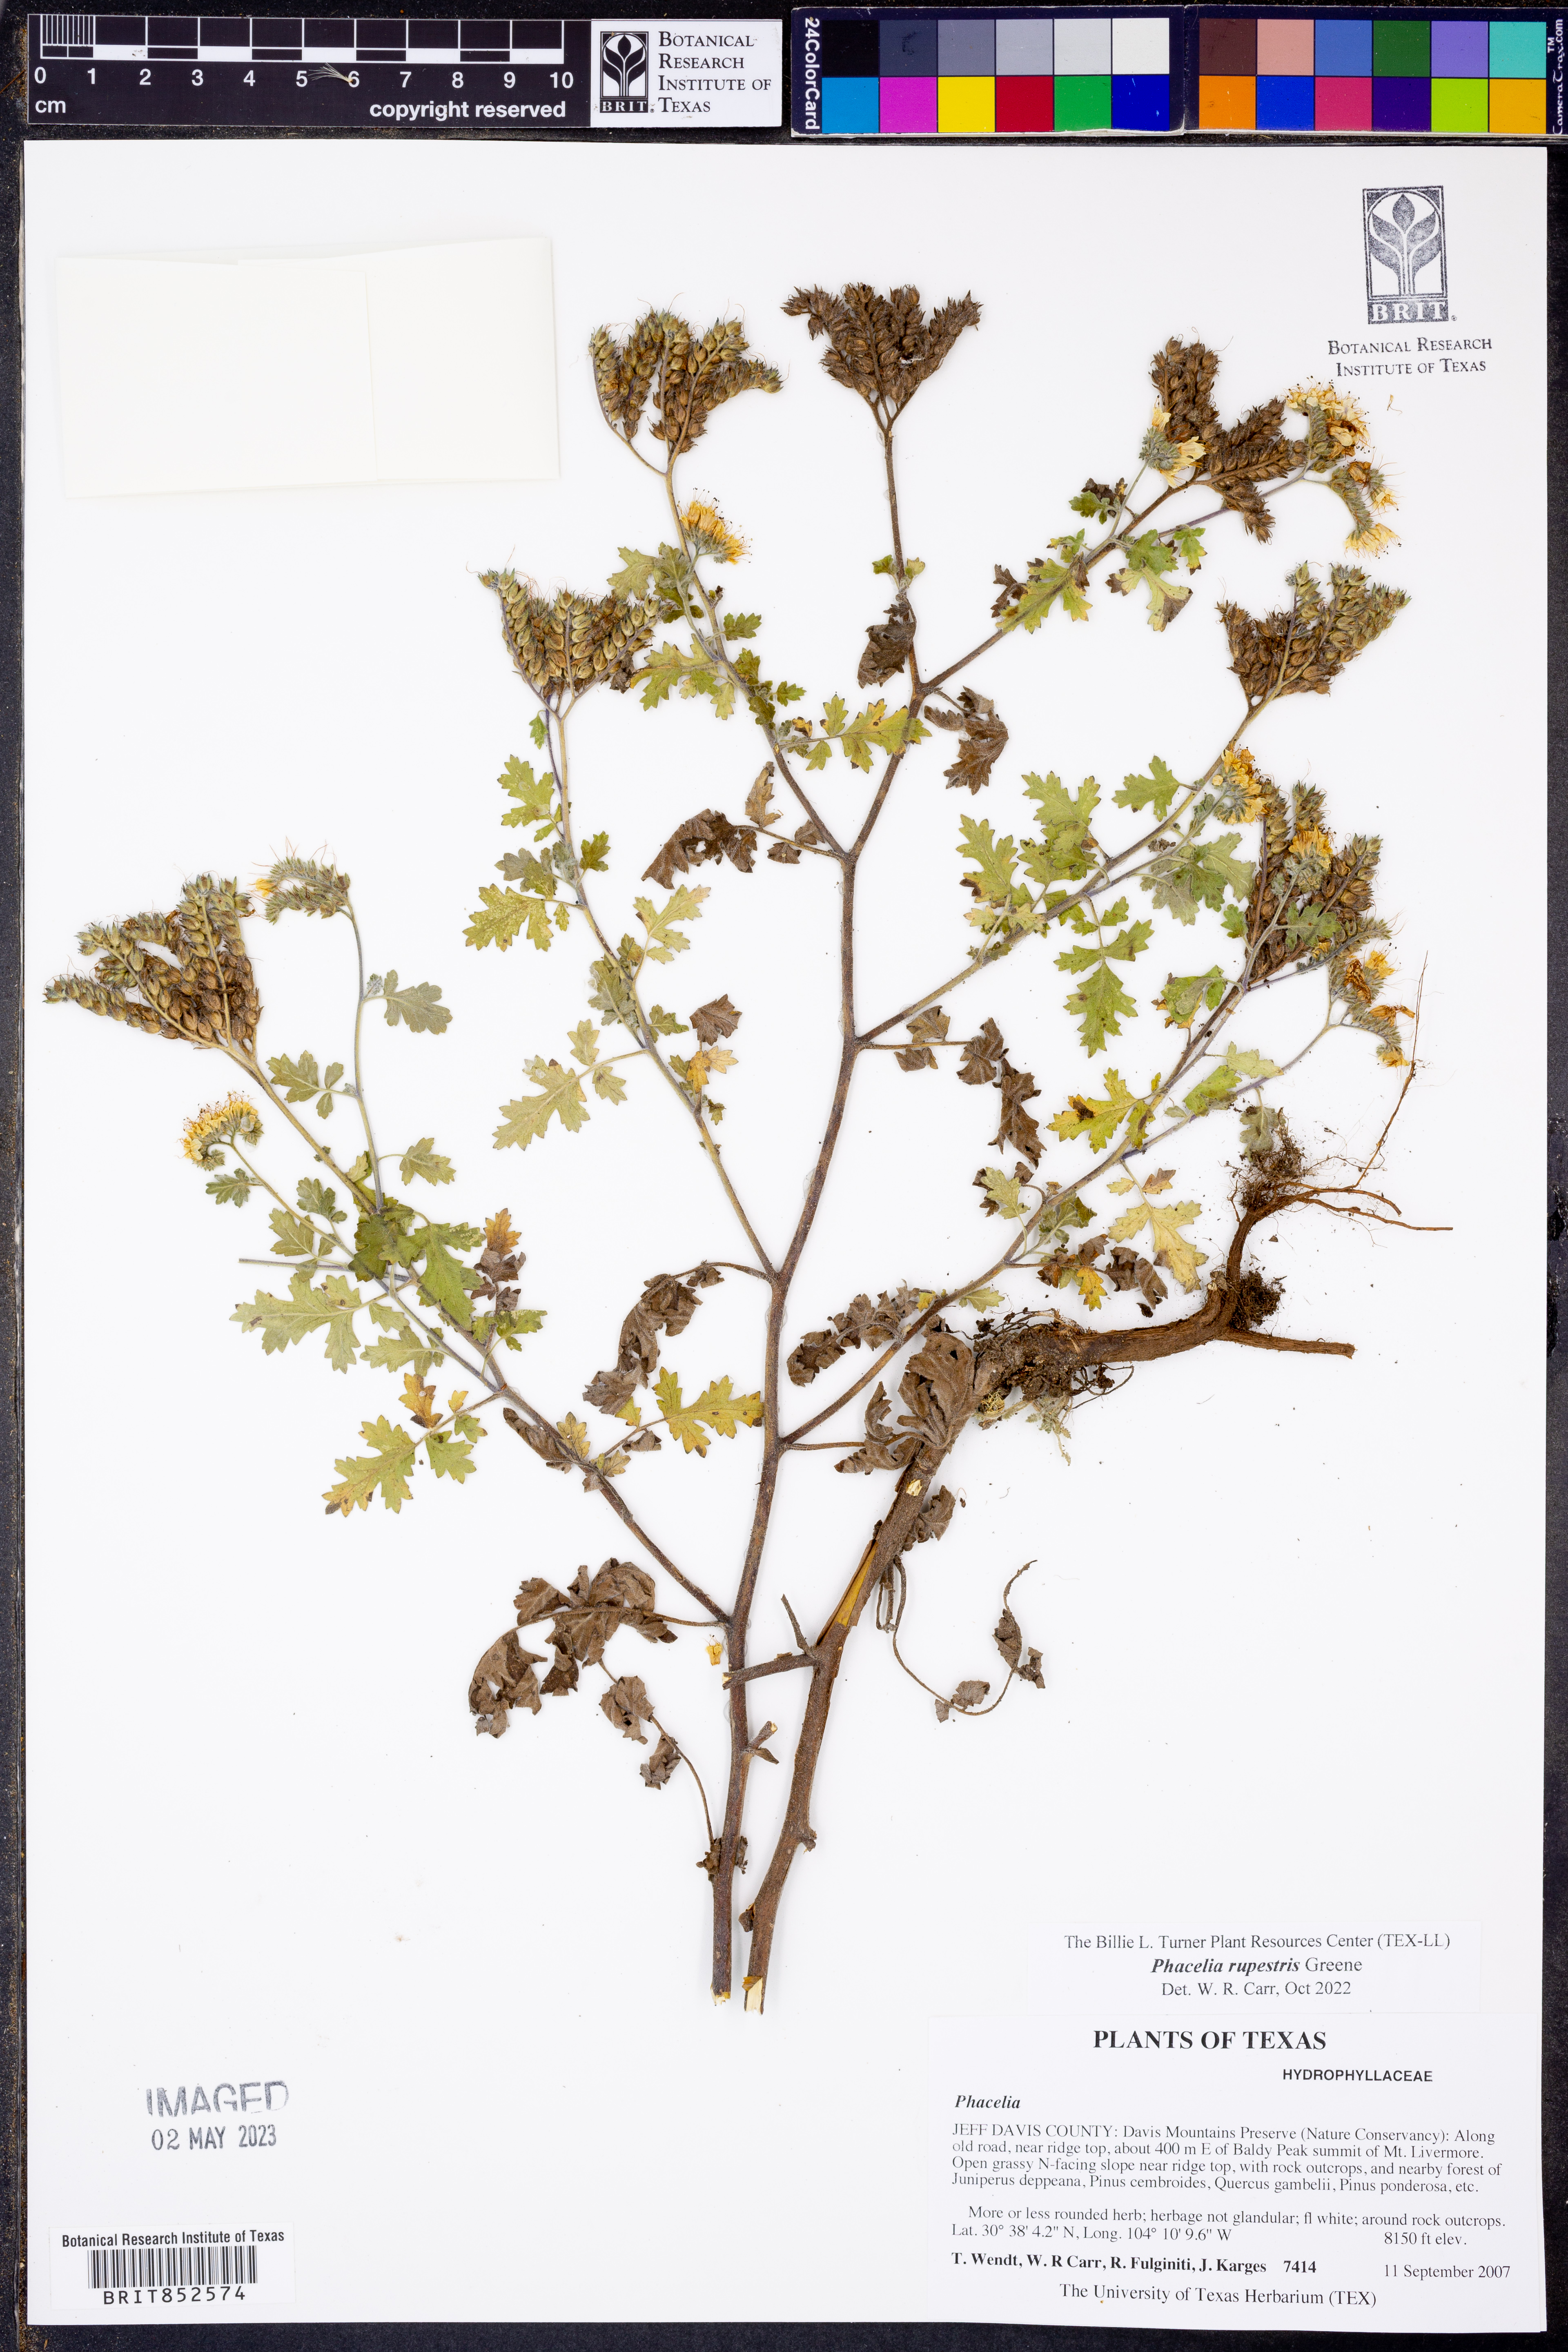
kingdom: Plantae
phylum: Tracheophyta
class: Magnoliopsida
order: Boraginales
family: Hydrophyllaceae
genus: Phacelia
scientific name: Phacelia rupestris
